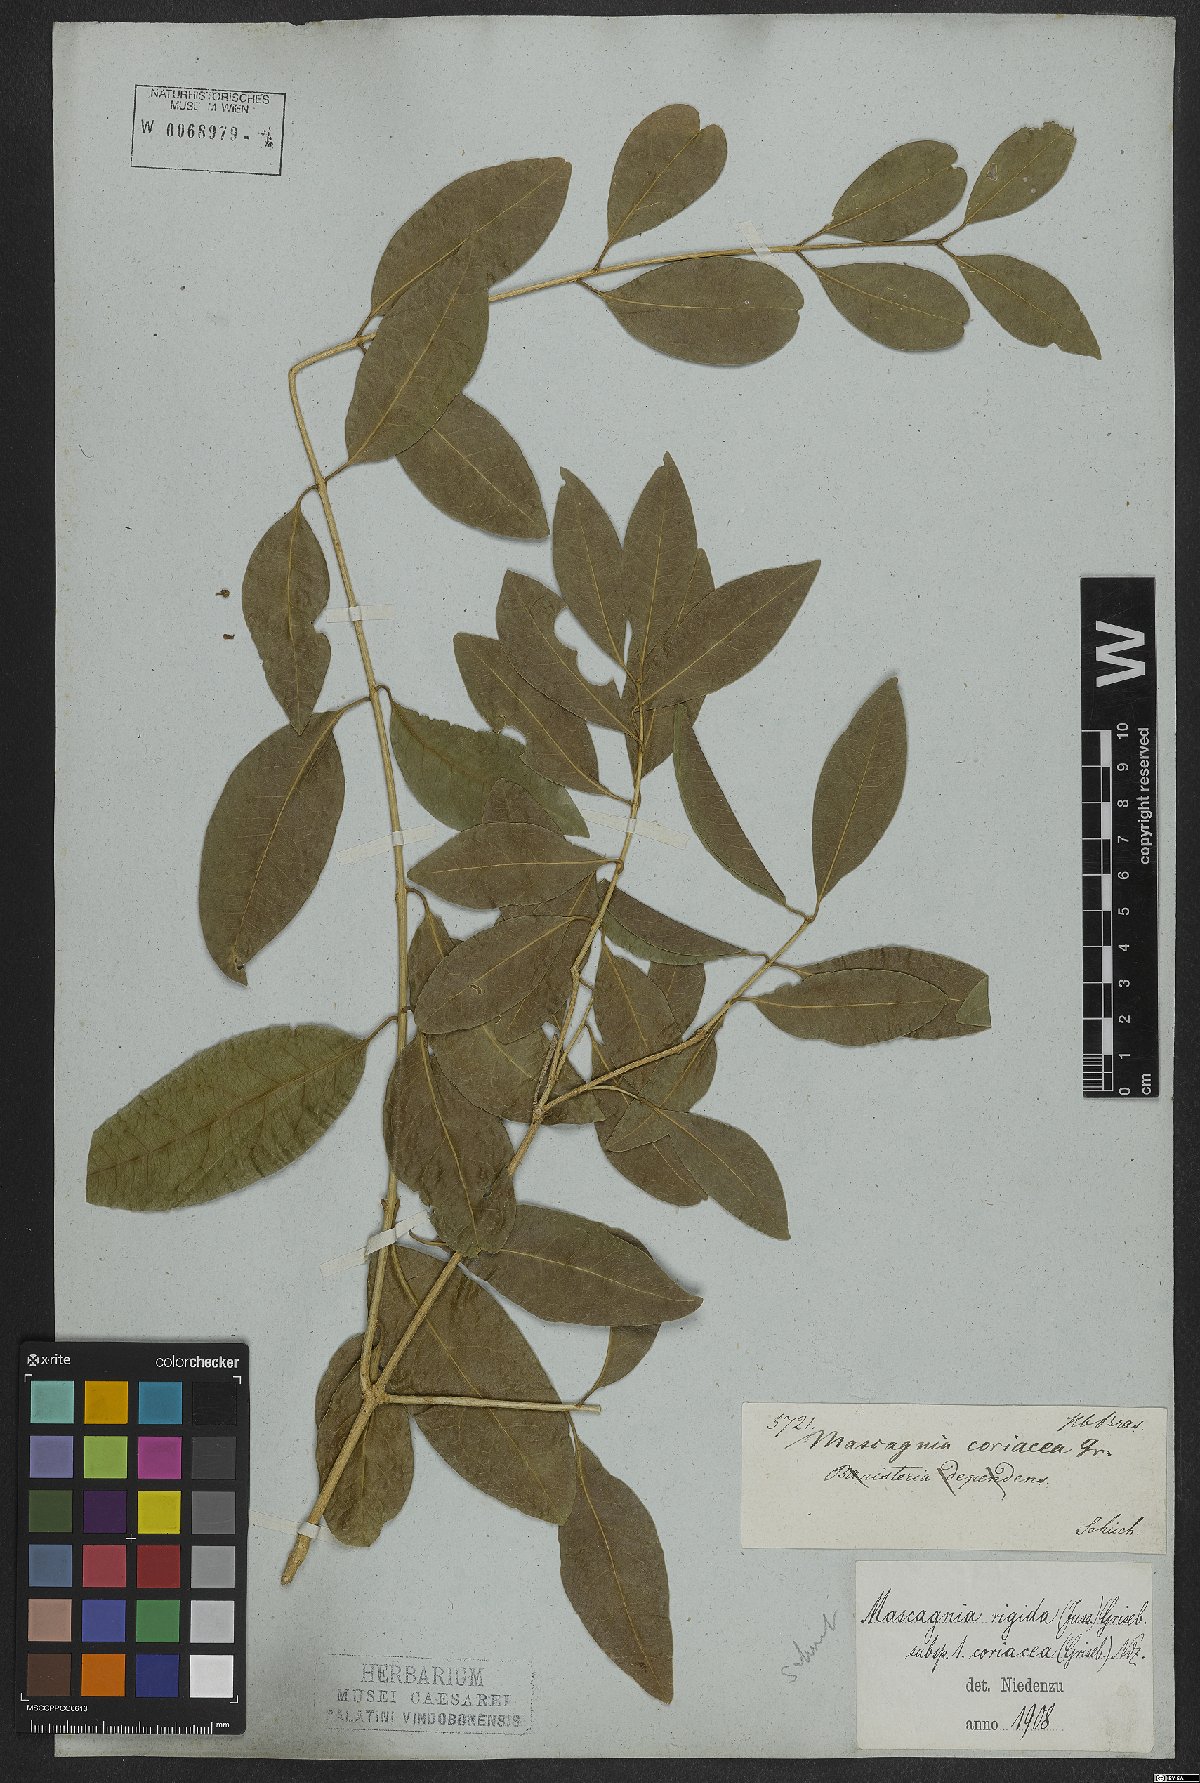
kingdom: Plantae
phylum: Tracheophyta
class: Magnoliopsida
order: Malpighiales
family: Malpighiaceae
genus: Amorimia
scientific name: Amorimia coriacea
